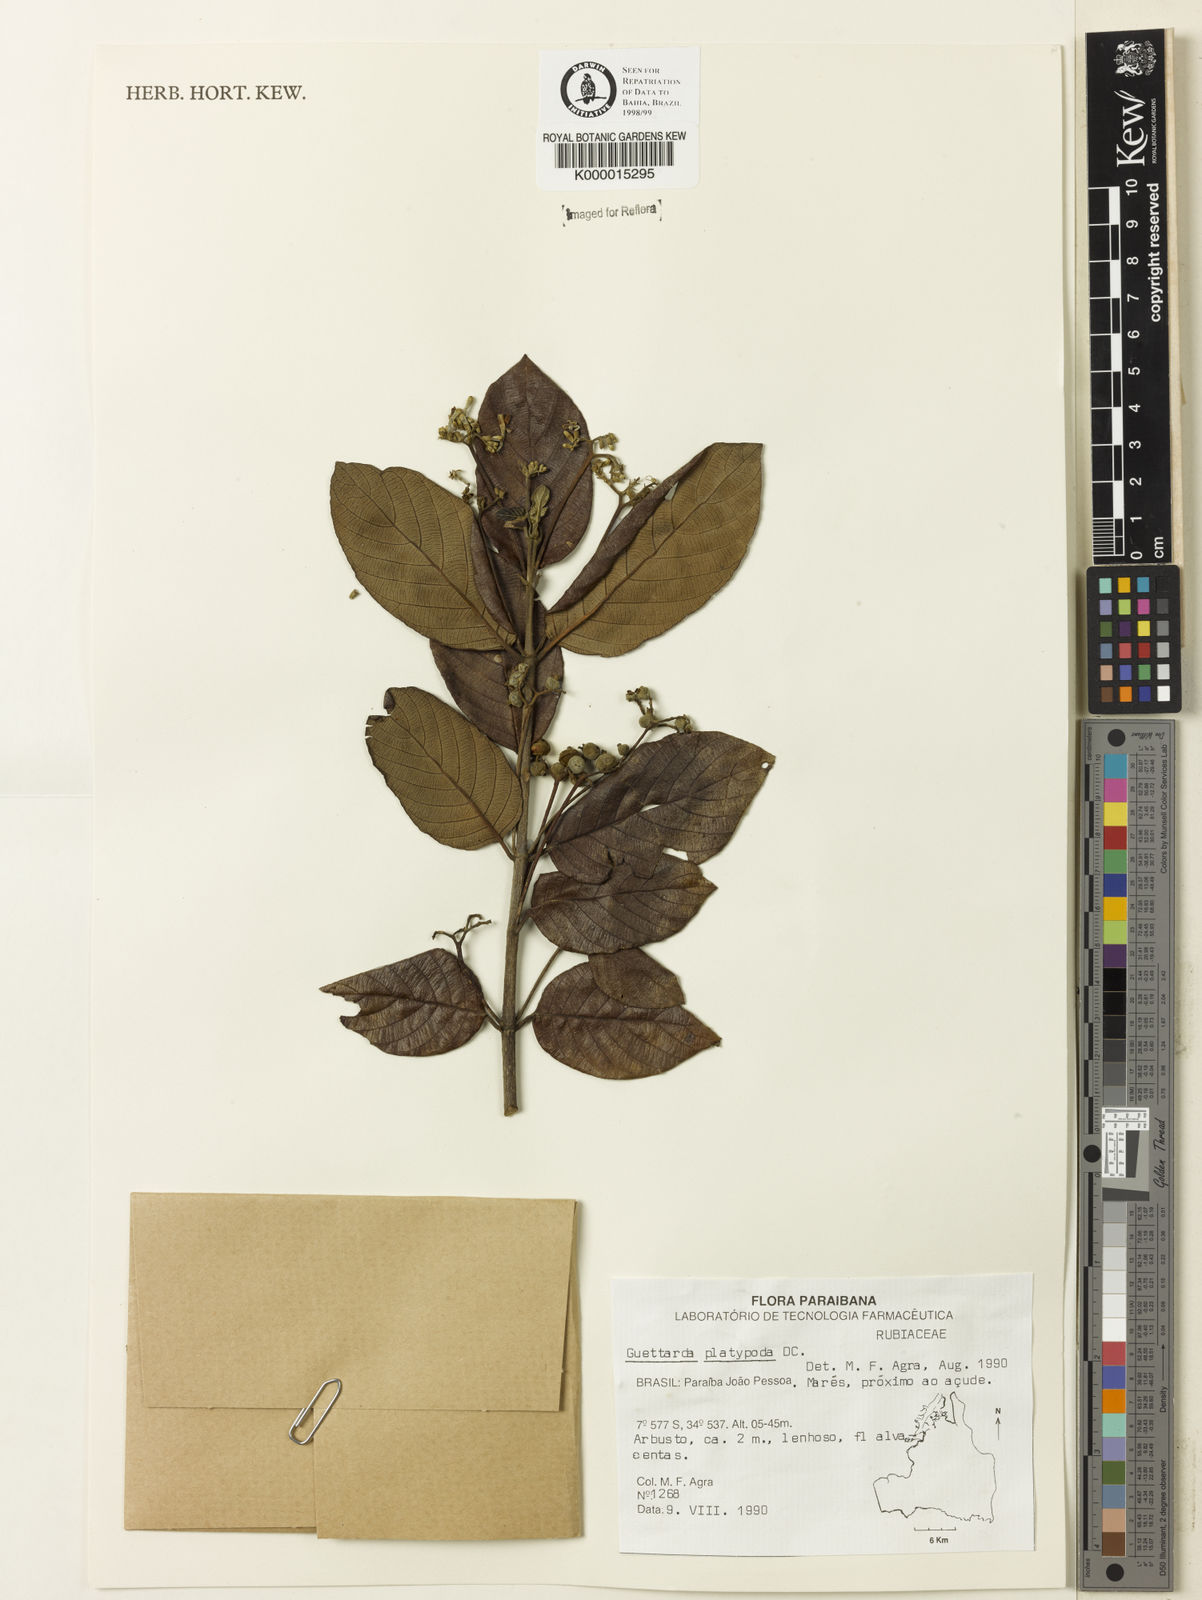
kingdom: Plantae
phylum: Tracheophyta
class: Magnoliopsida
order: Gentianales
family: Rubiaceae
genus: Guettarda
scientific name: Guettarda platypoda
